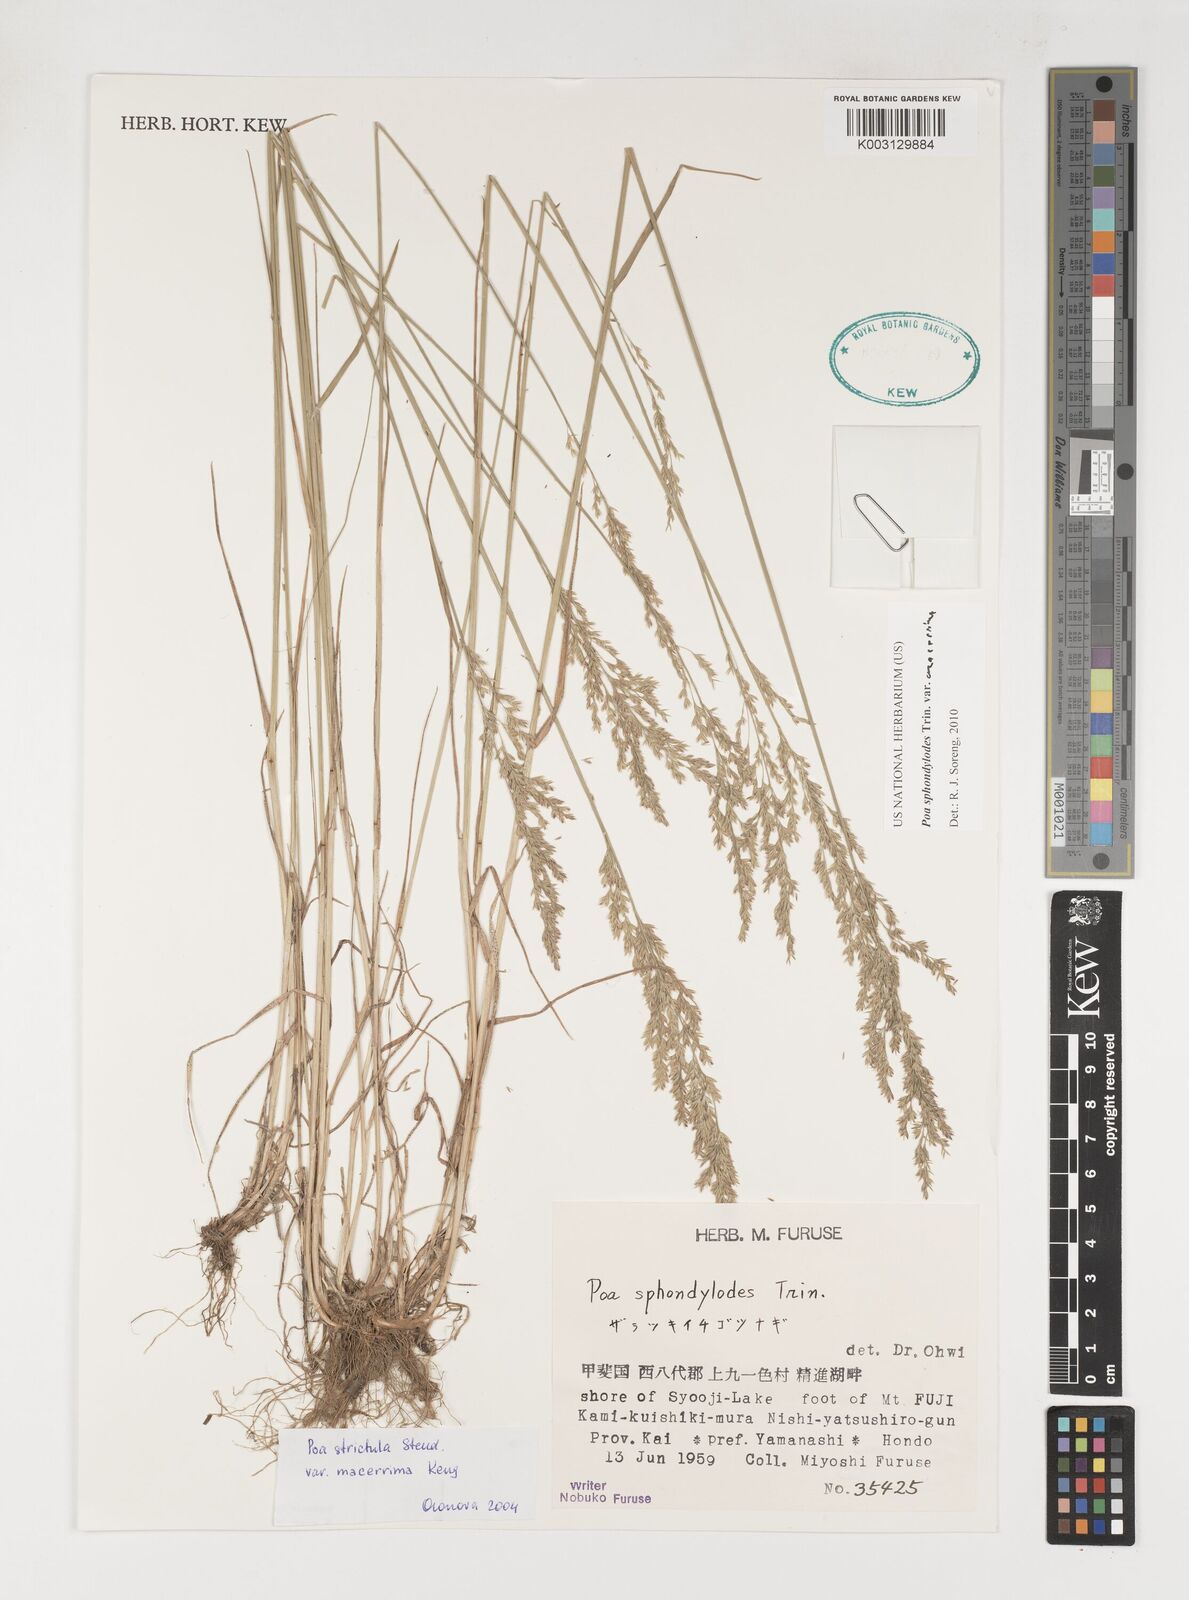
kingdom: Plantae
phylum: Tracheophyta
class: Liliopsida
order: Poales
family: Poaceae
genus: Poa
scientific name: Poa sphondylodes
